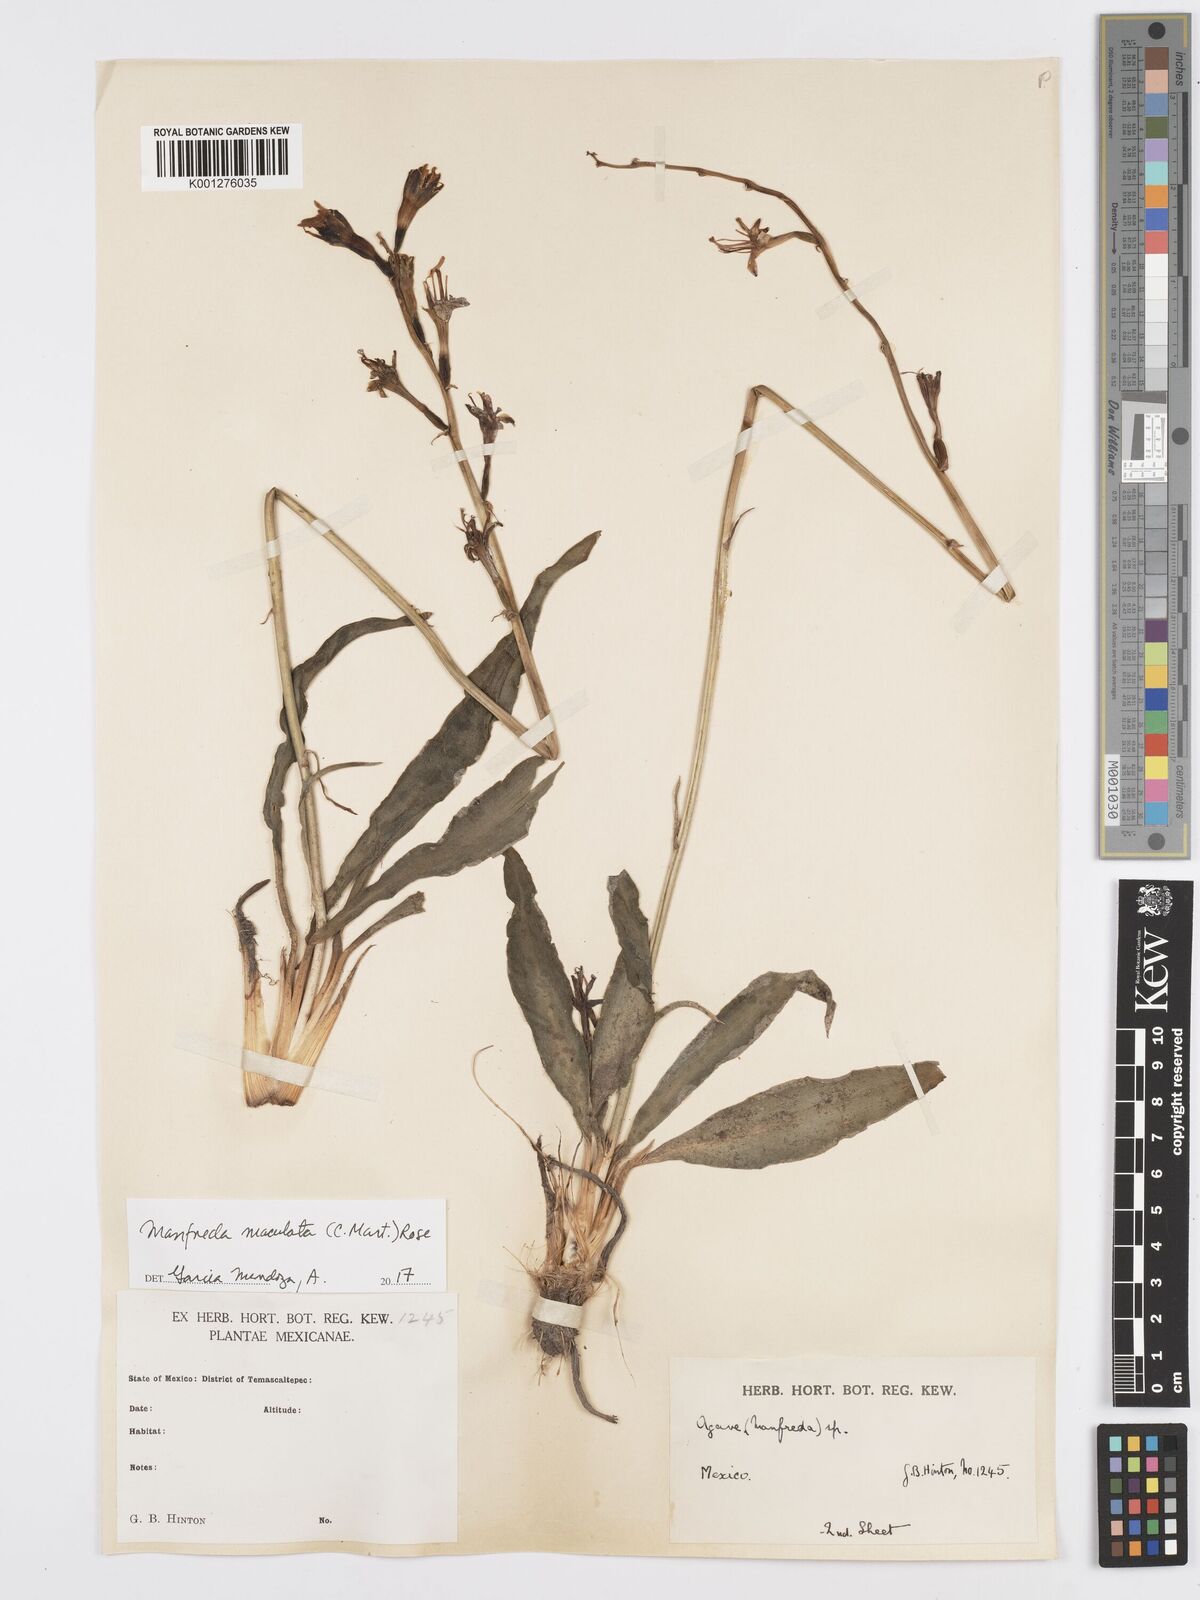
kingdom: Plantae
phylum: Tracheophyta
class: Liliopsida
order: Asparagales
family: Asparagaceae
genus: Agave
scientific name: Agave stictata
